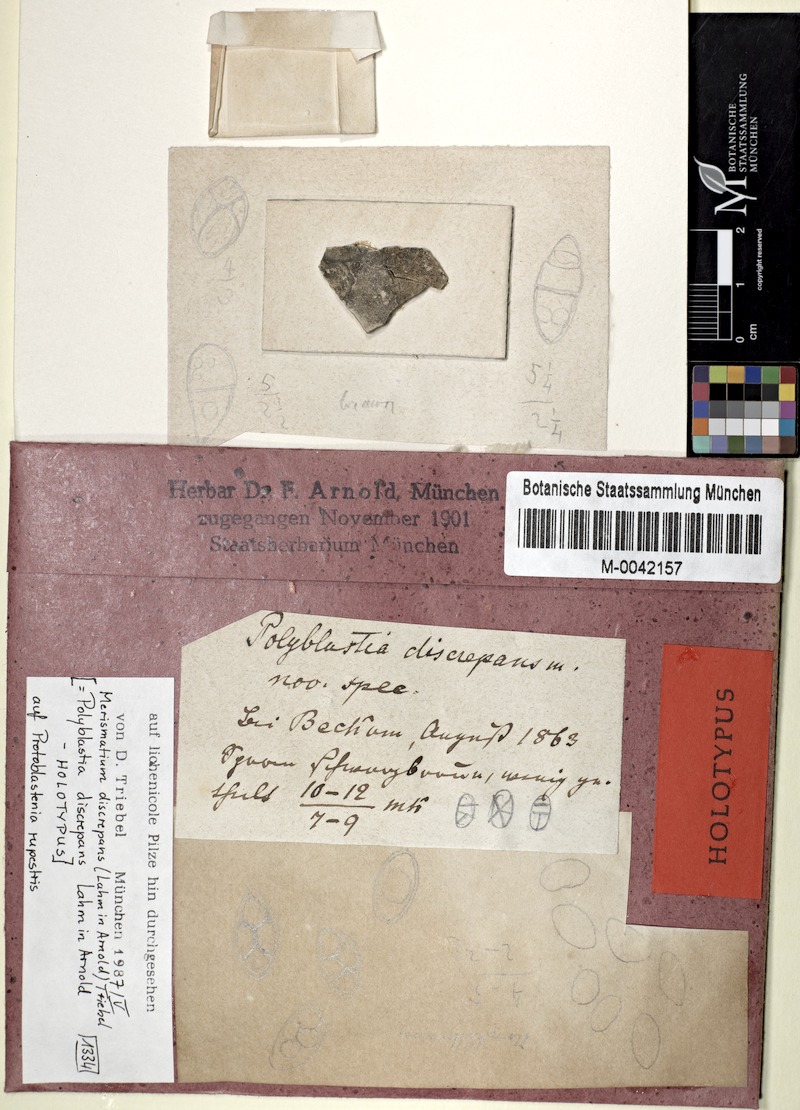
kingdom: Fungi
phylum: Ascomycota
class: Eurotiomycetes
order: Verrucariales
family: Verrucariaceae
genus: Halospora
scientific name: Halospora discrepans
